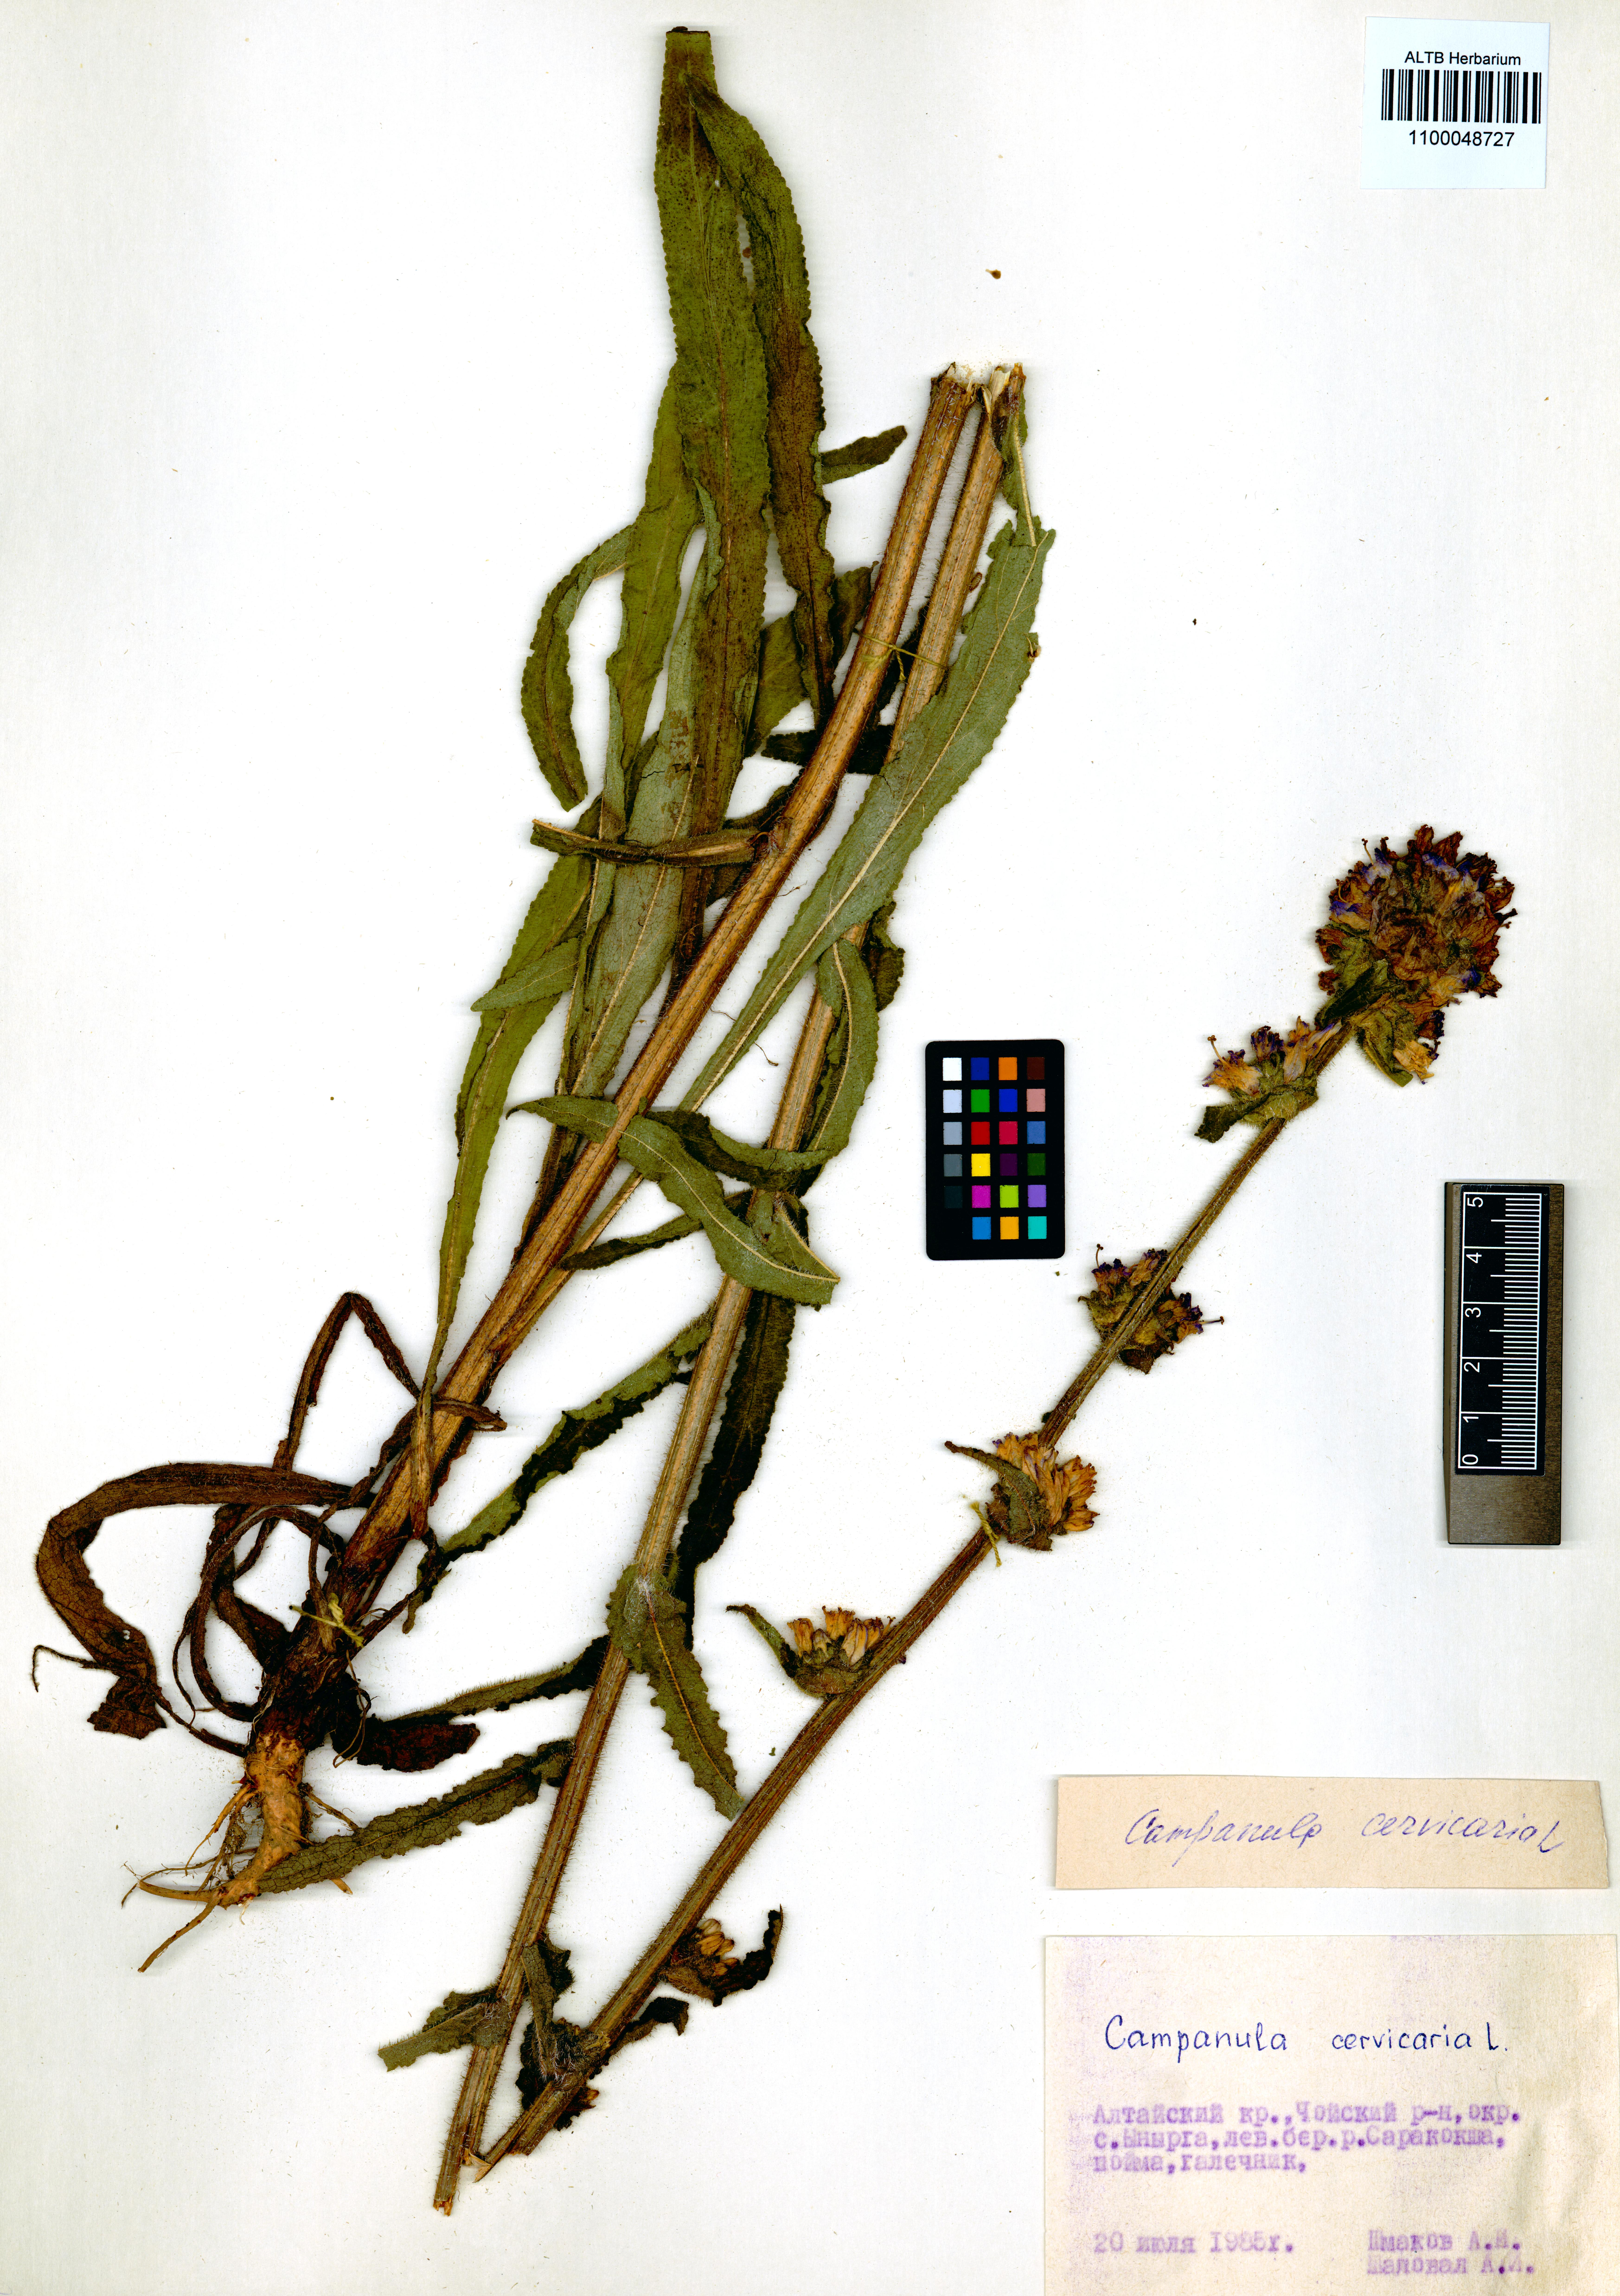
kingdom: Plantae
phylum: Tracheophyta
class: Magnoliopsida
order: Asterales
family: Campanulaceae
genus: Campanula
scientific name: Campanula cervicaria
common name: Bristly bellflower
